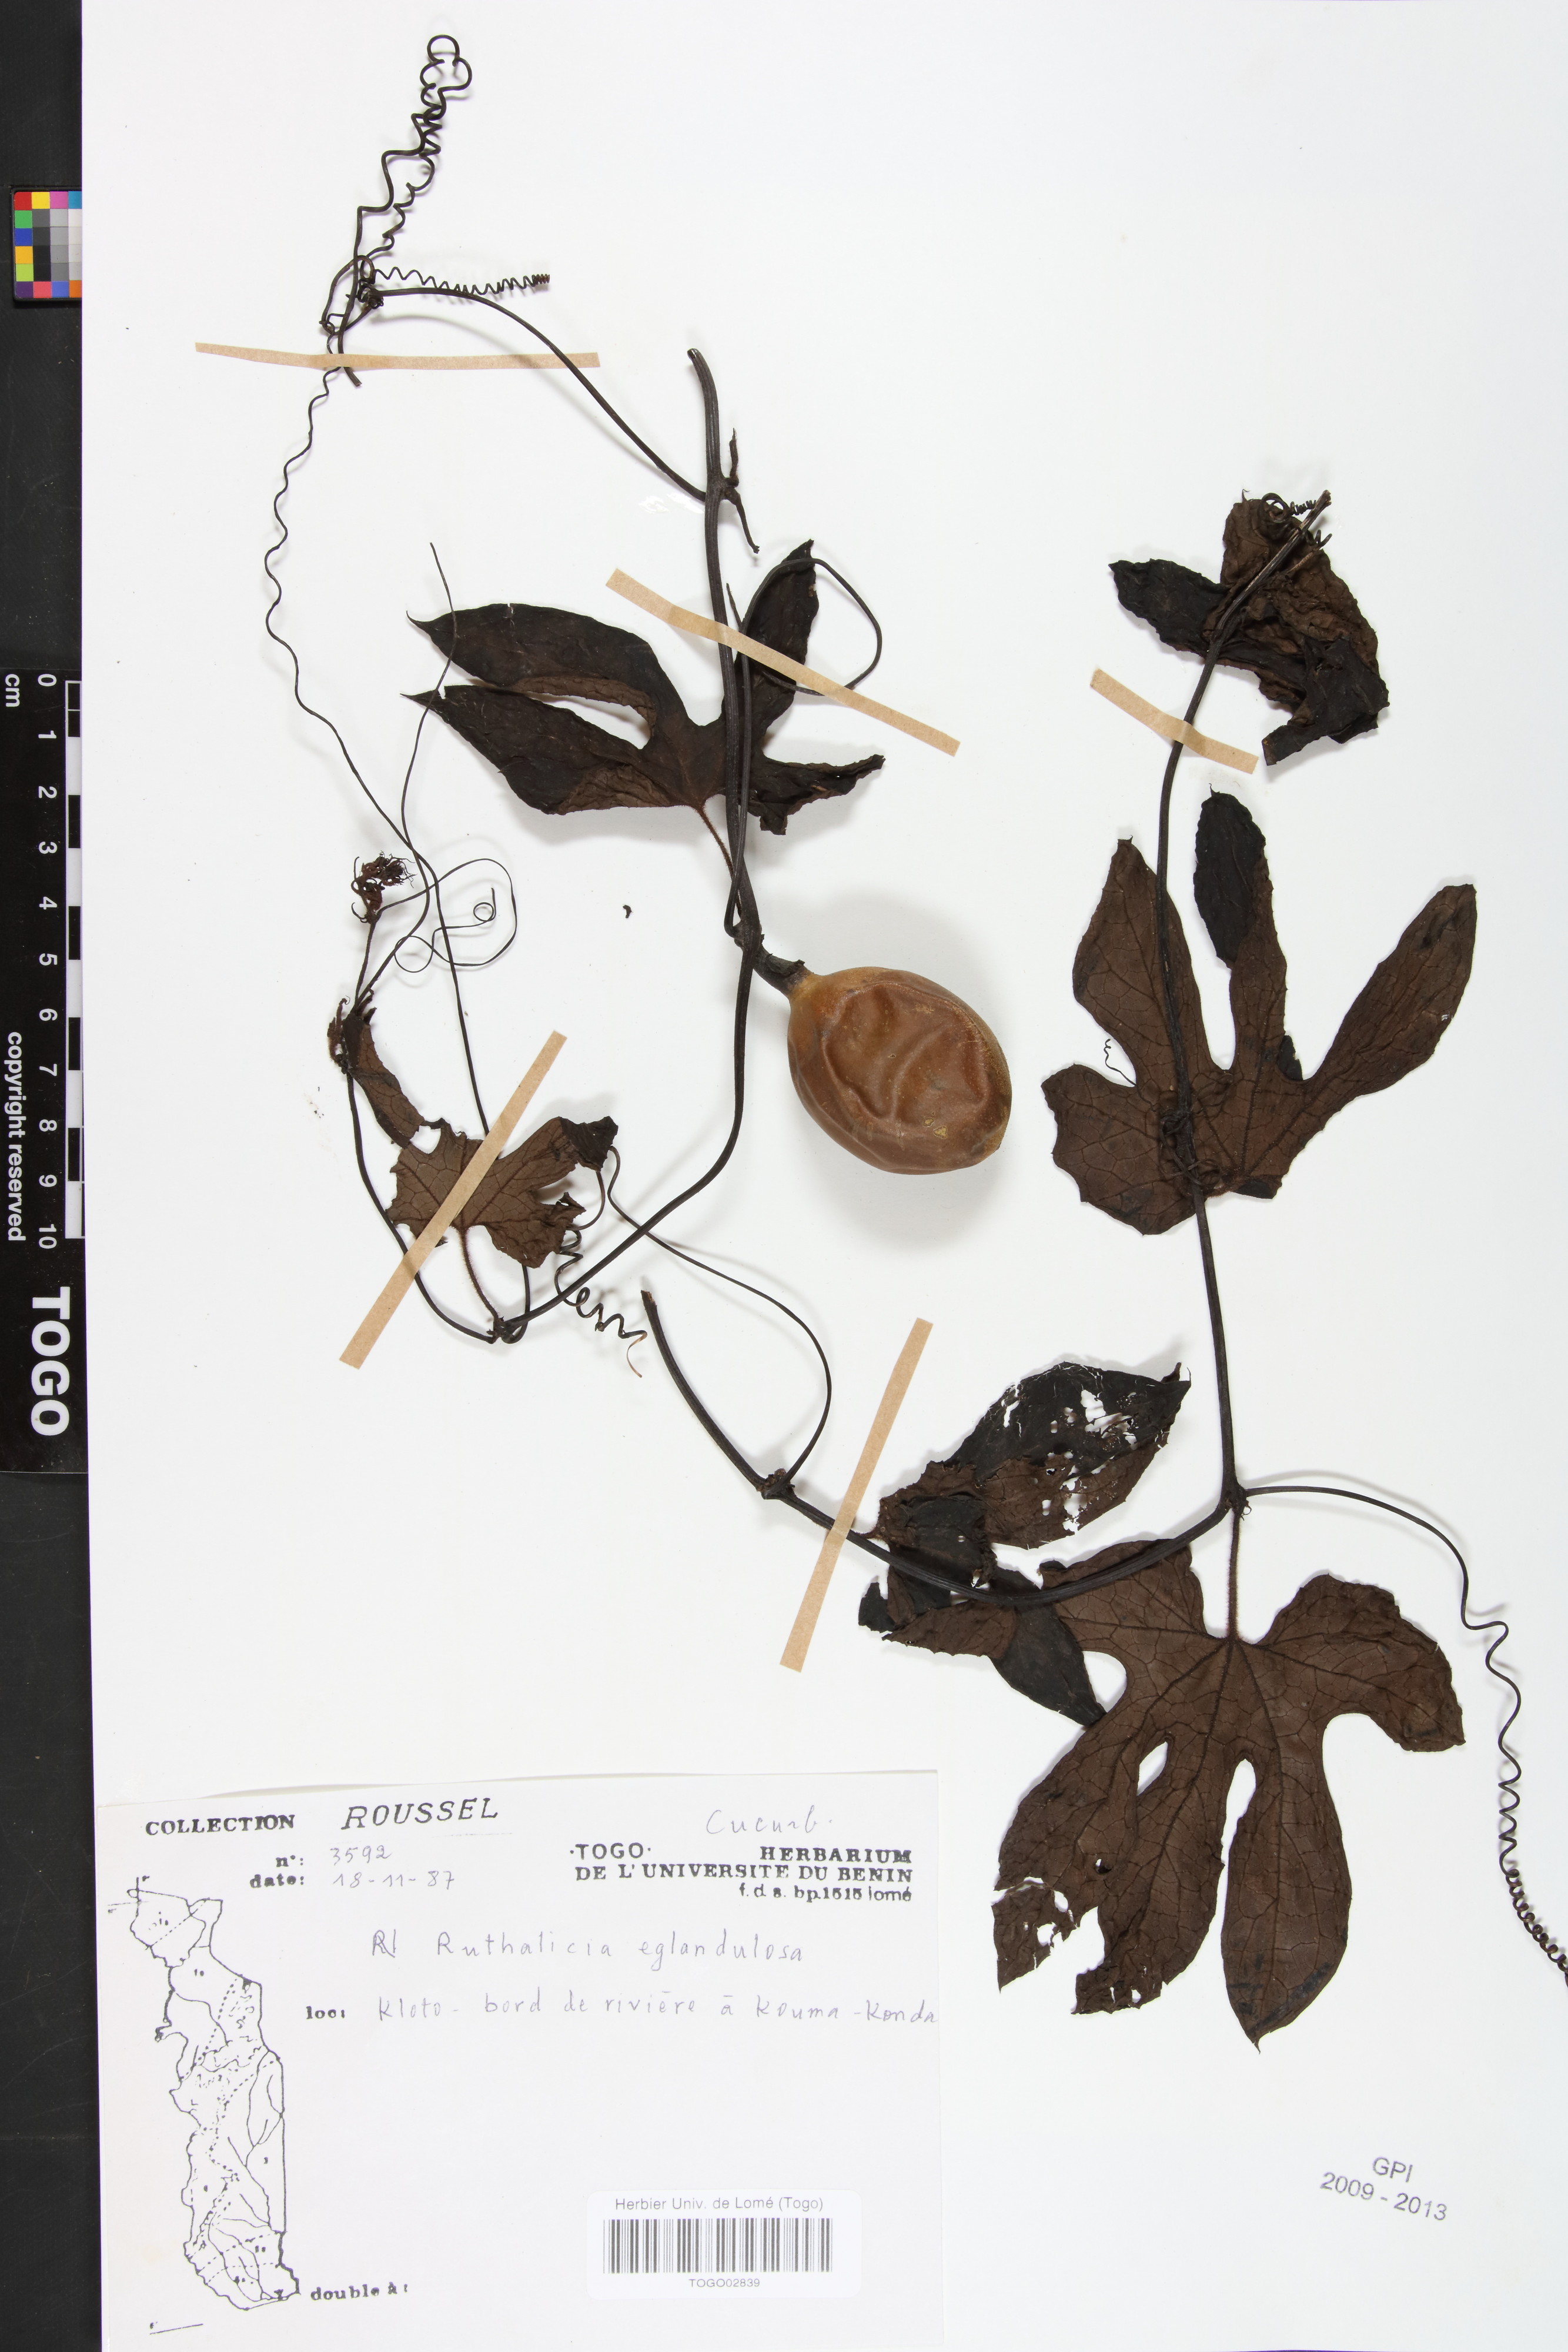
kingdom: Plantae
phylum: Tracheophyta
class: Magnoliopsida
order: Cucurbitales
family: Cucurbitaceae
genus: Ruthalicia
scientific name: Ruthalicia eglandulosa
